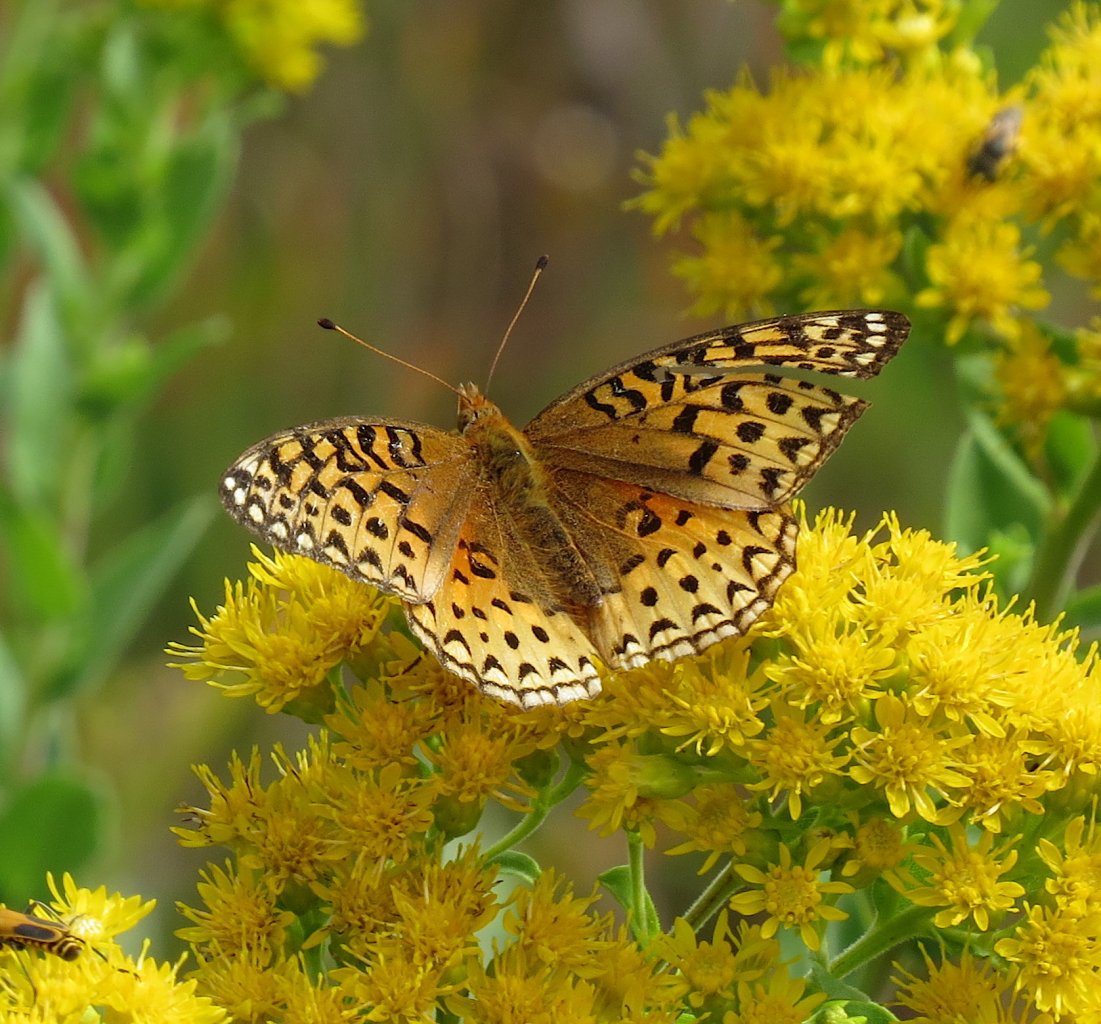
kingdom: Animalia
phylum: Arthropoda
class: Insecta
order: Lepidoptera
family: Nymphalidae
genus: Speyeria
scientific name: Speyeria cybele
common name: Great Spangled Fritillary
